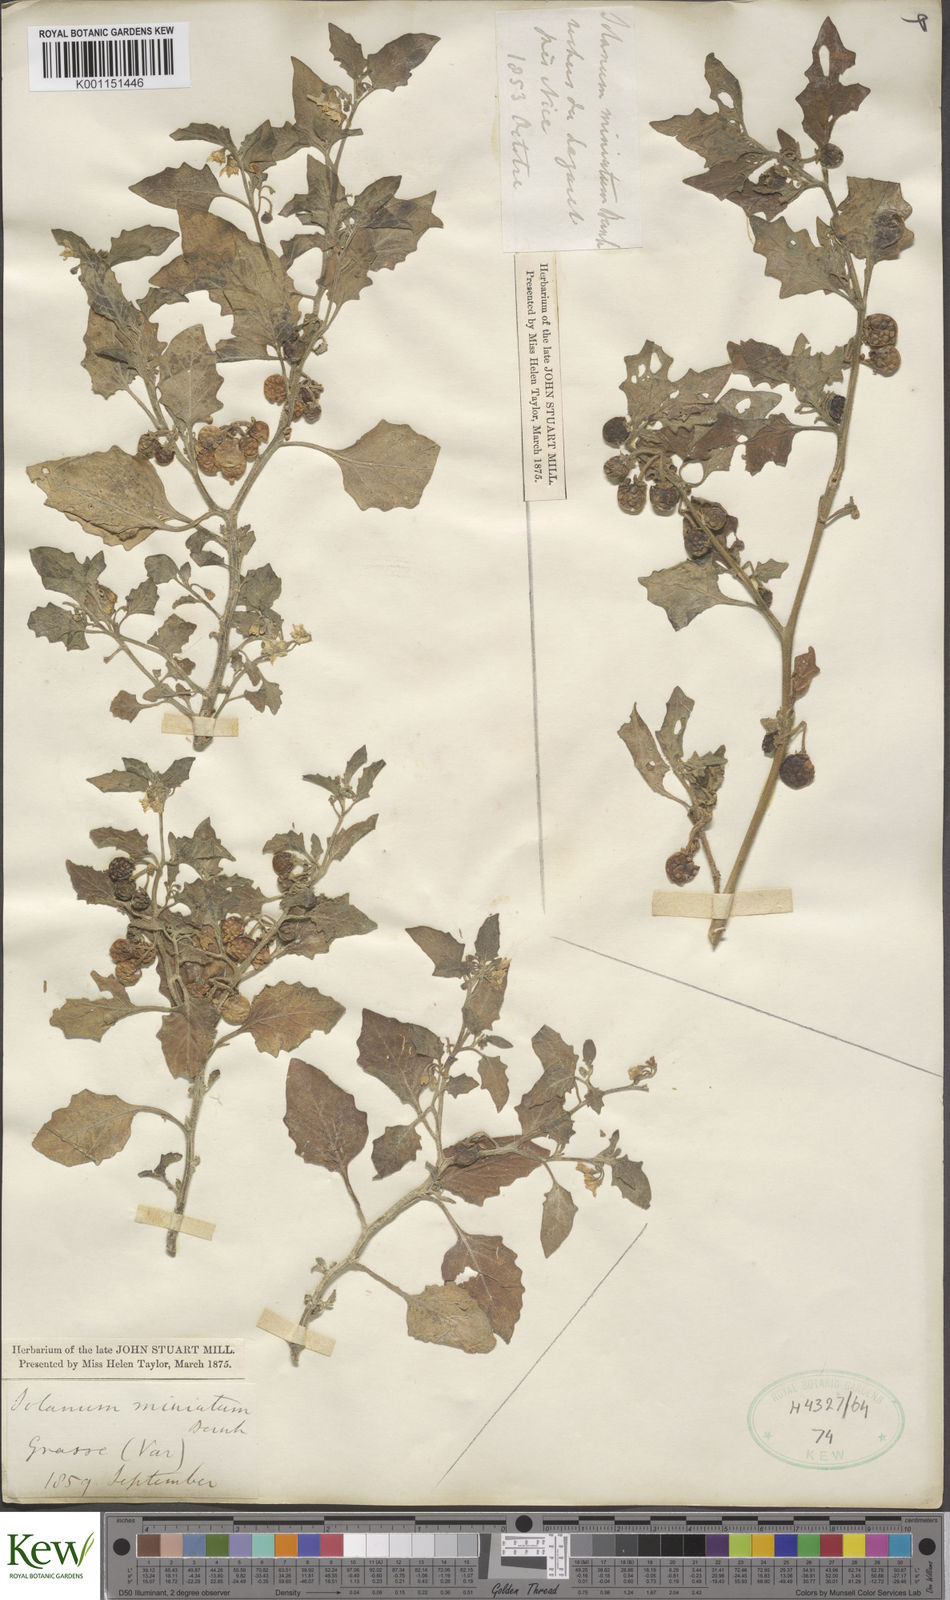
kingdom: Plantae
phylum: Tracheophyta
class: Magnoliopsida
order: Solanales
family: Solanaceae
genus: Solanum
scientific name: Solanum villosum
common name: Red nightshade
